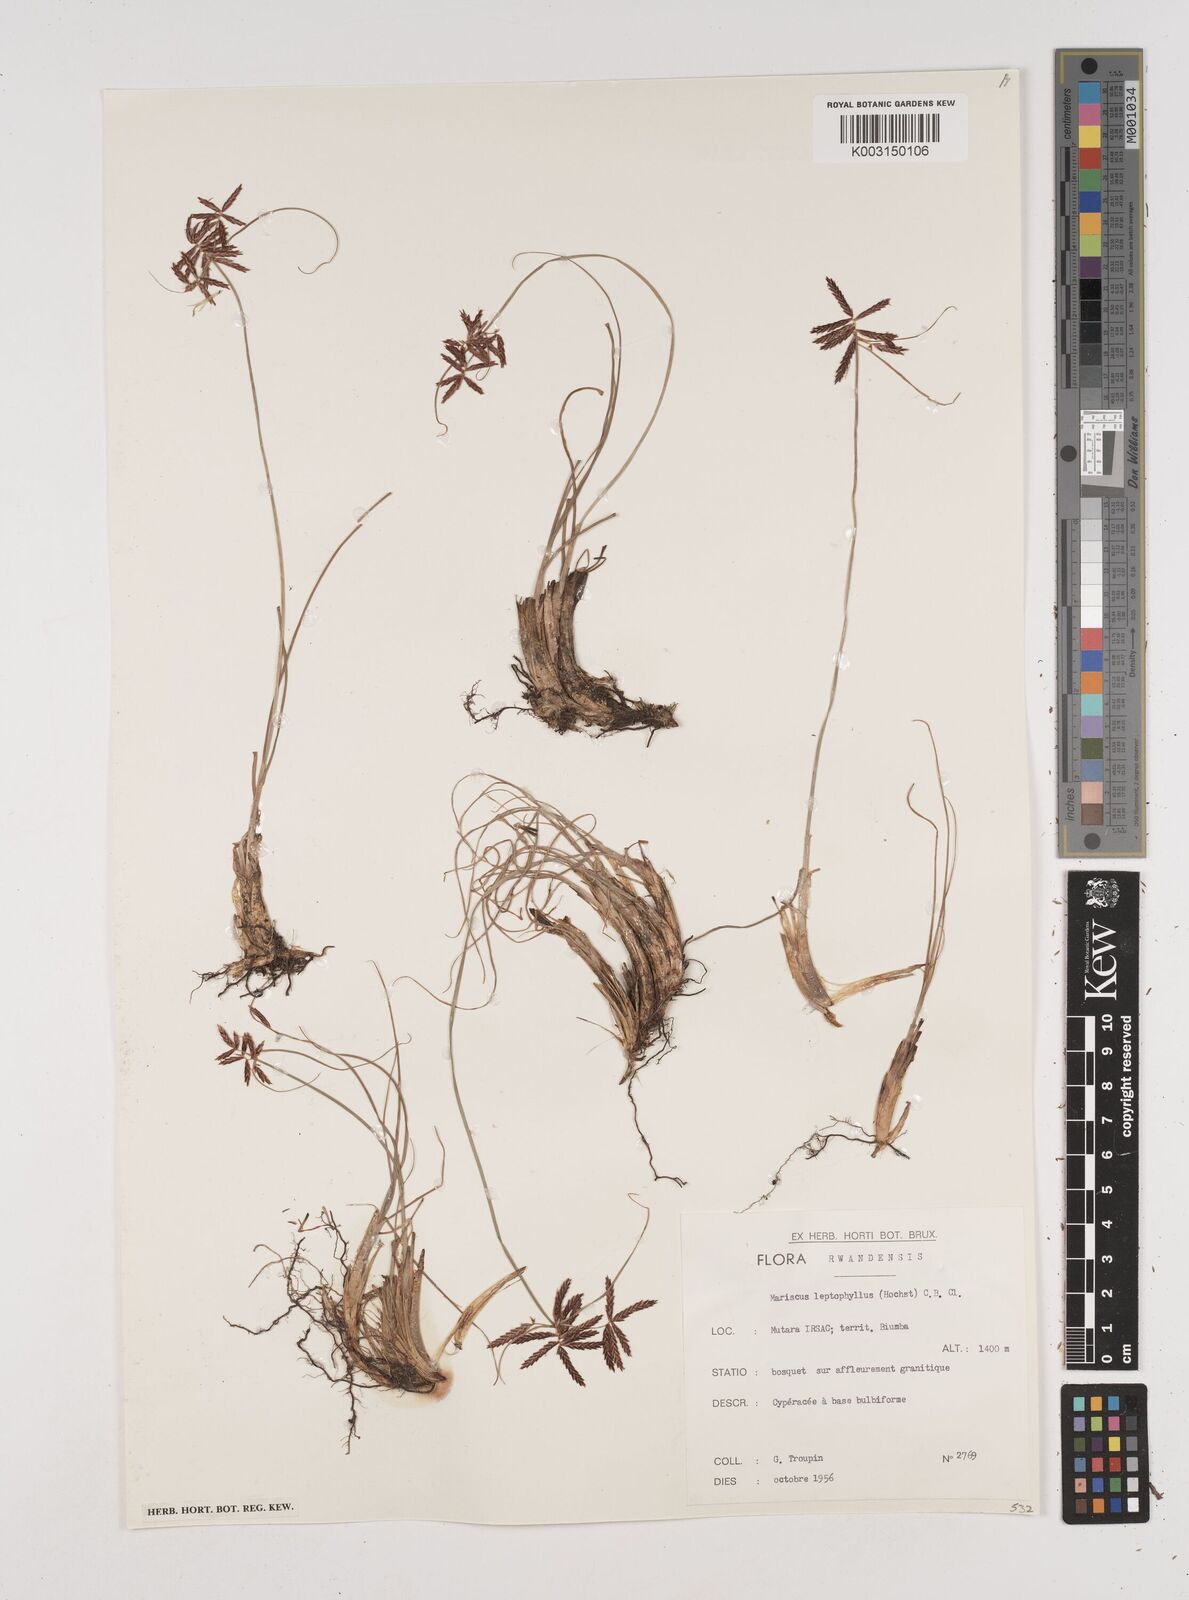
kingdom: Plantae
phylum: Tracheophyta
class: Liliopsida
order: Poales
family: Cyperaceae
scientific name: Cyperaceae
